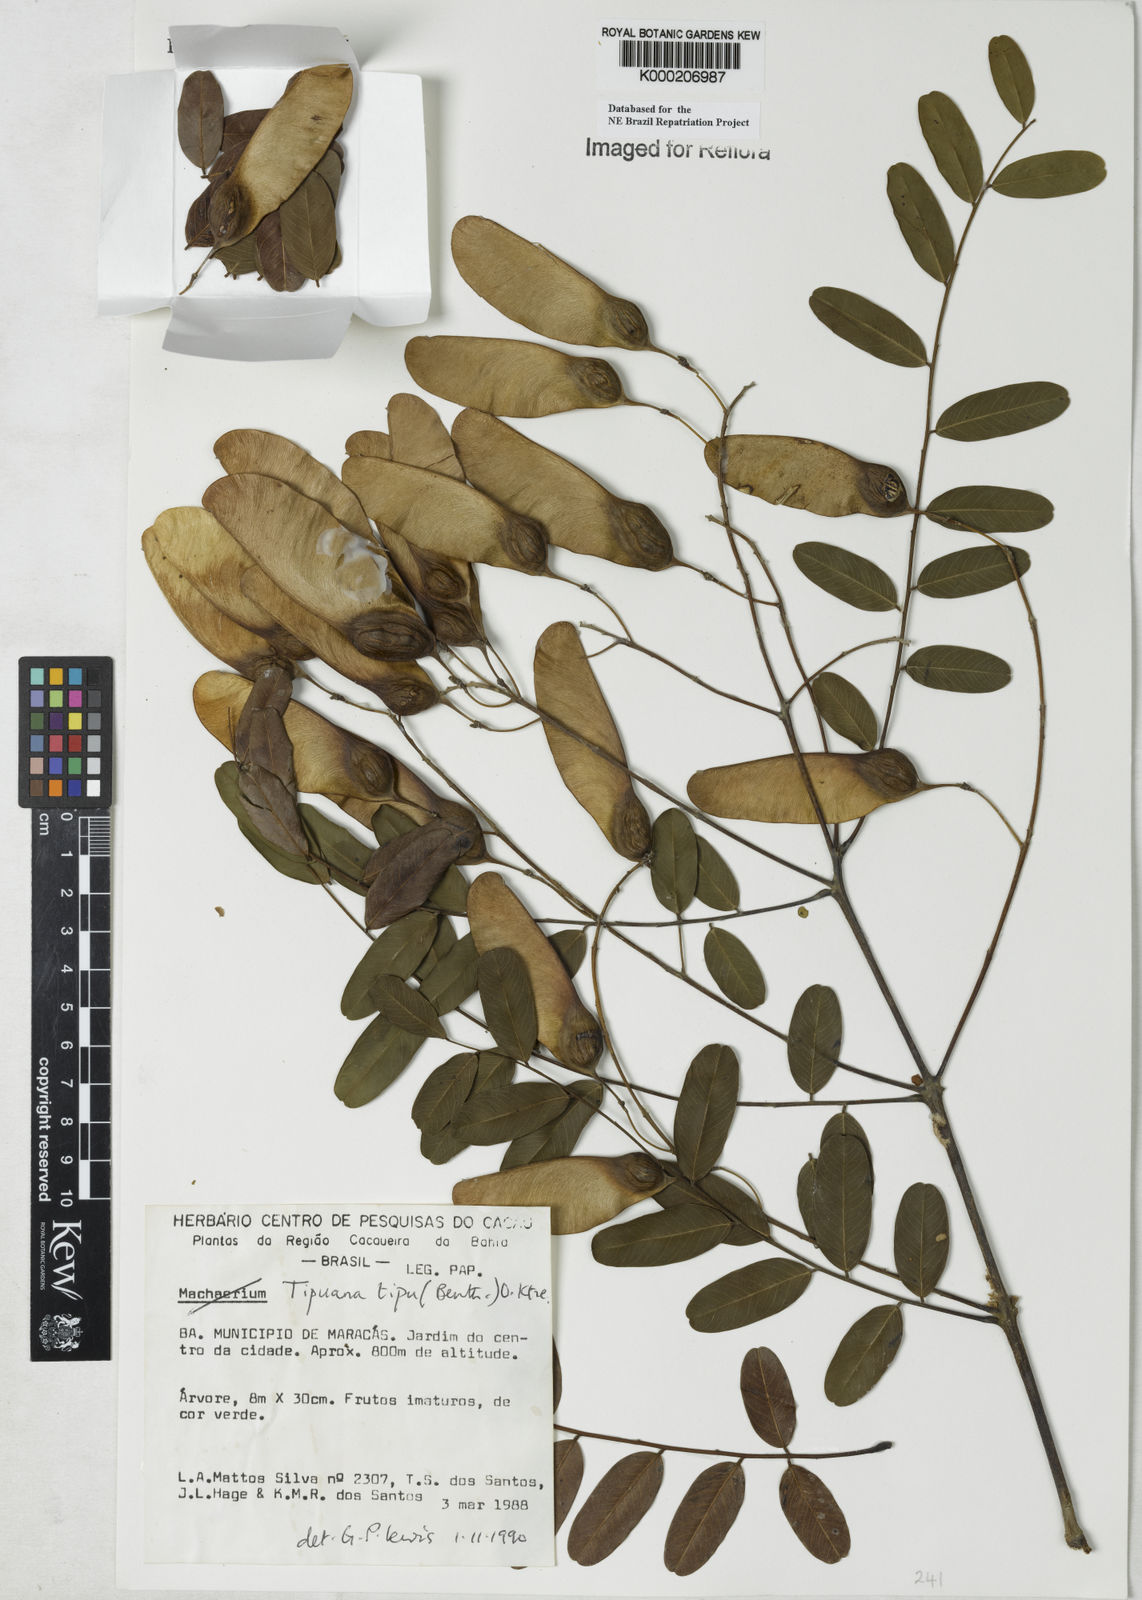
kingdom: Plantae
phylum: Tracheophyta
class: Magnoliopsida
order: Fabales
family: Fabaceae
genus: Tipuana
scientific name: Tipuana tipu
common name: Tiputree
